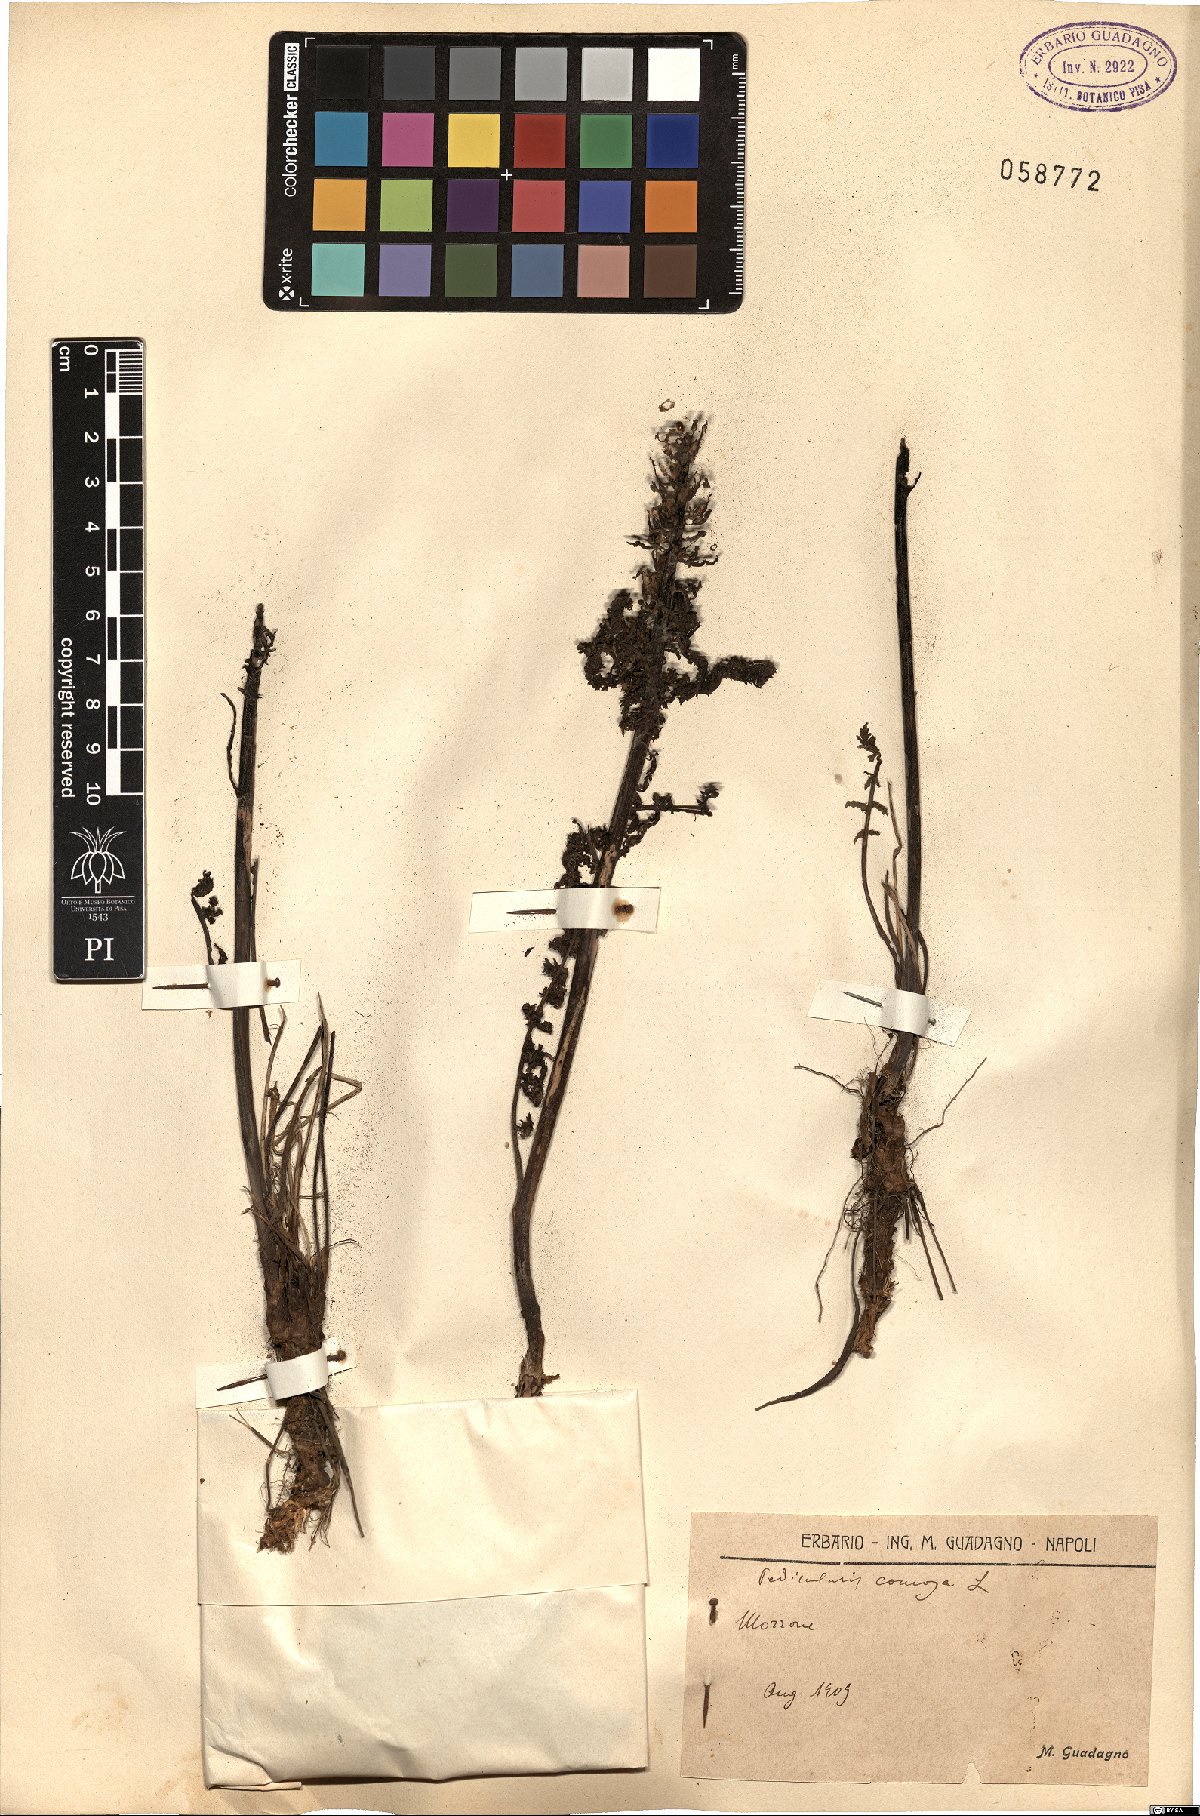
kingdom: Plantae
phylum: Tracheophyta
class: Magnoliopsida
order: Lamiales
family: Orobanchaceae
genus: Pedicularis
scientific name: Pedicularis comosa
